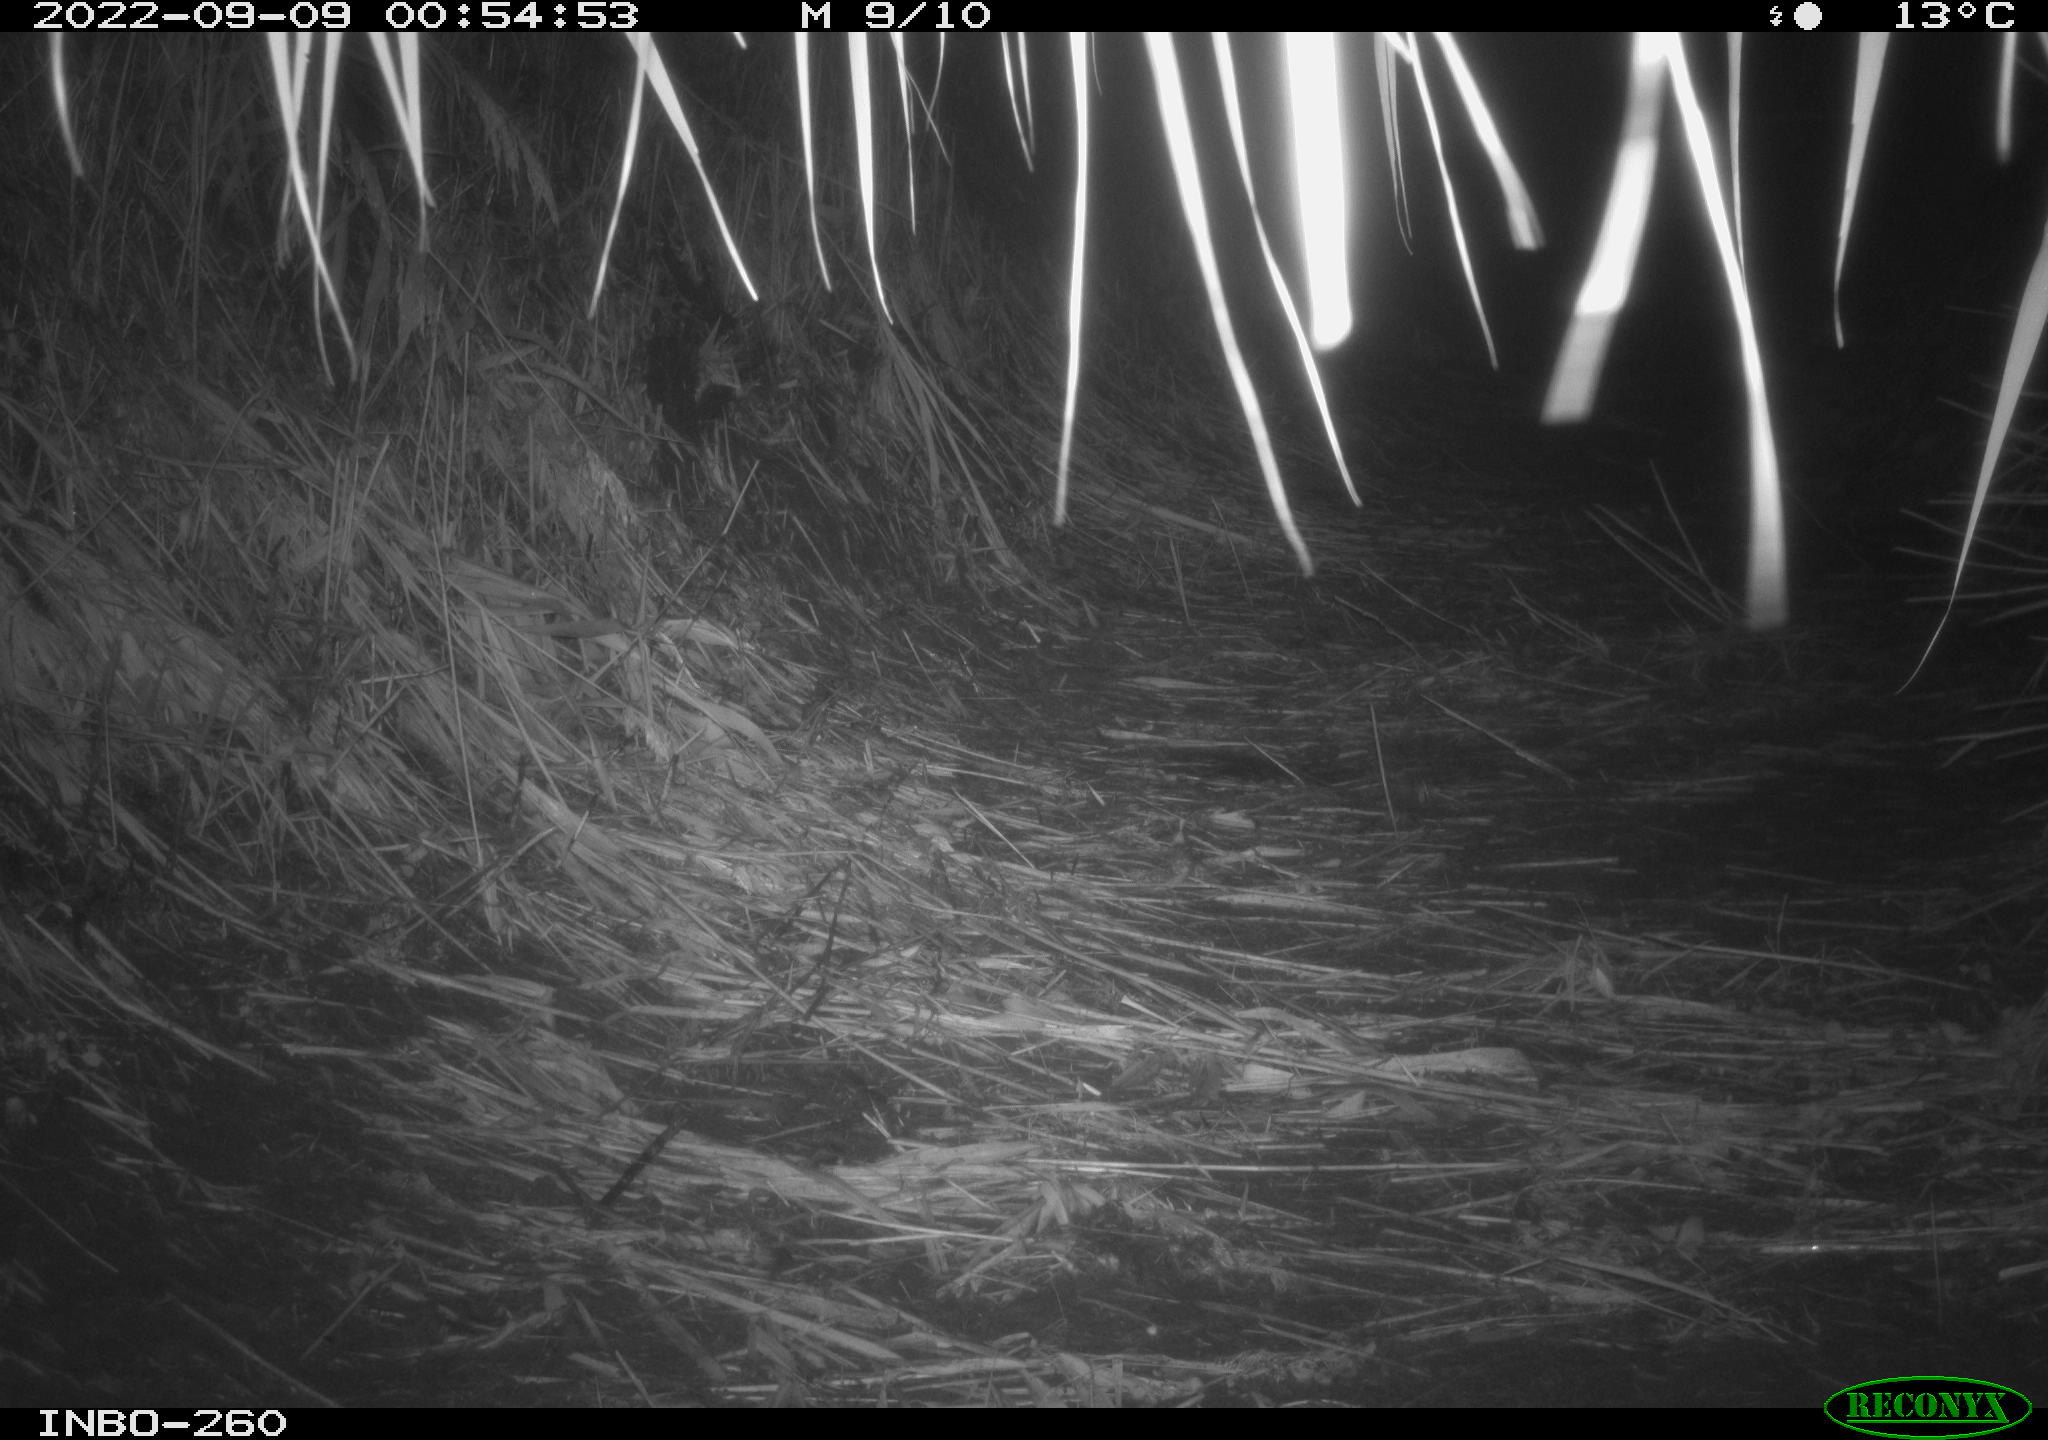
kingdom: Animalia
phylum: Chordata
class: Mammalia
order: Rodentia
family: Muridae
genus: Rattus
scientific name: Rattus norvegicus
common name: Brown rat
